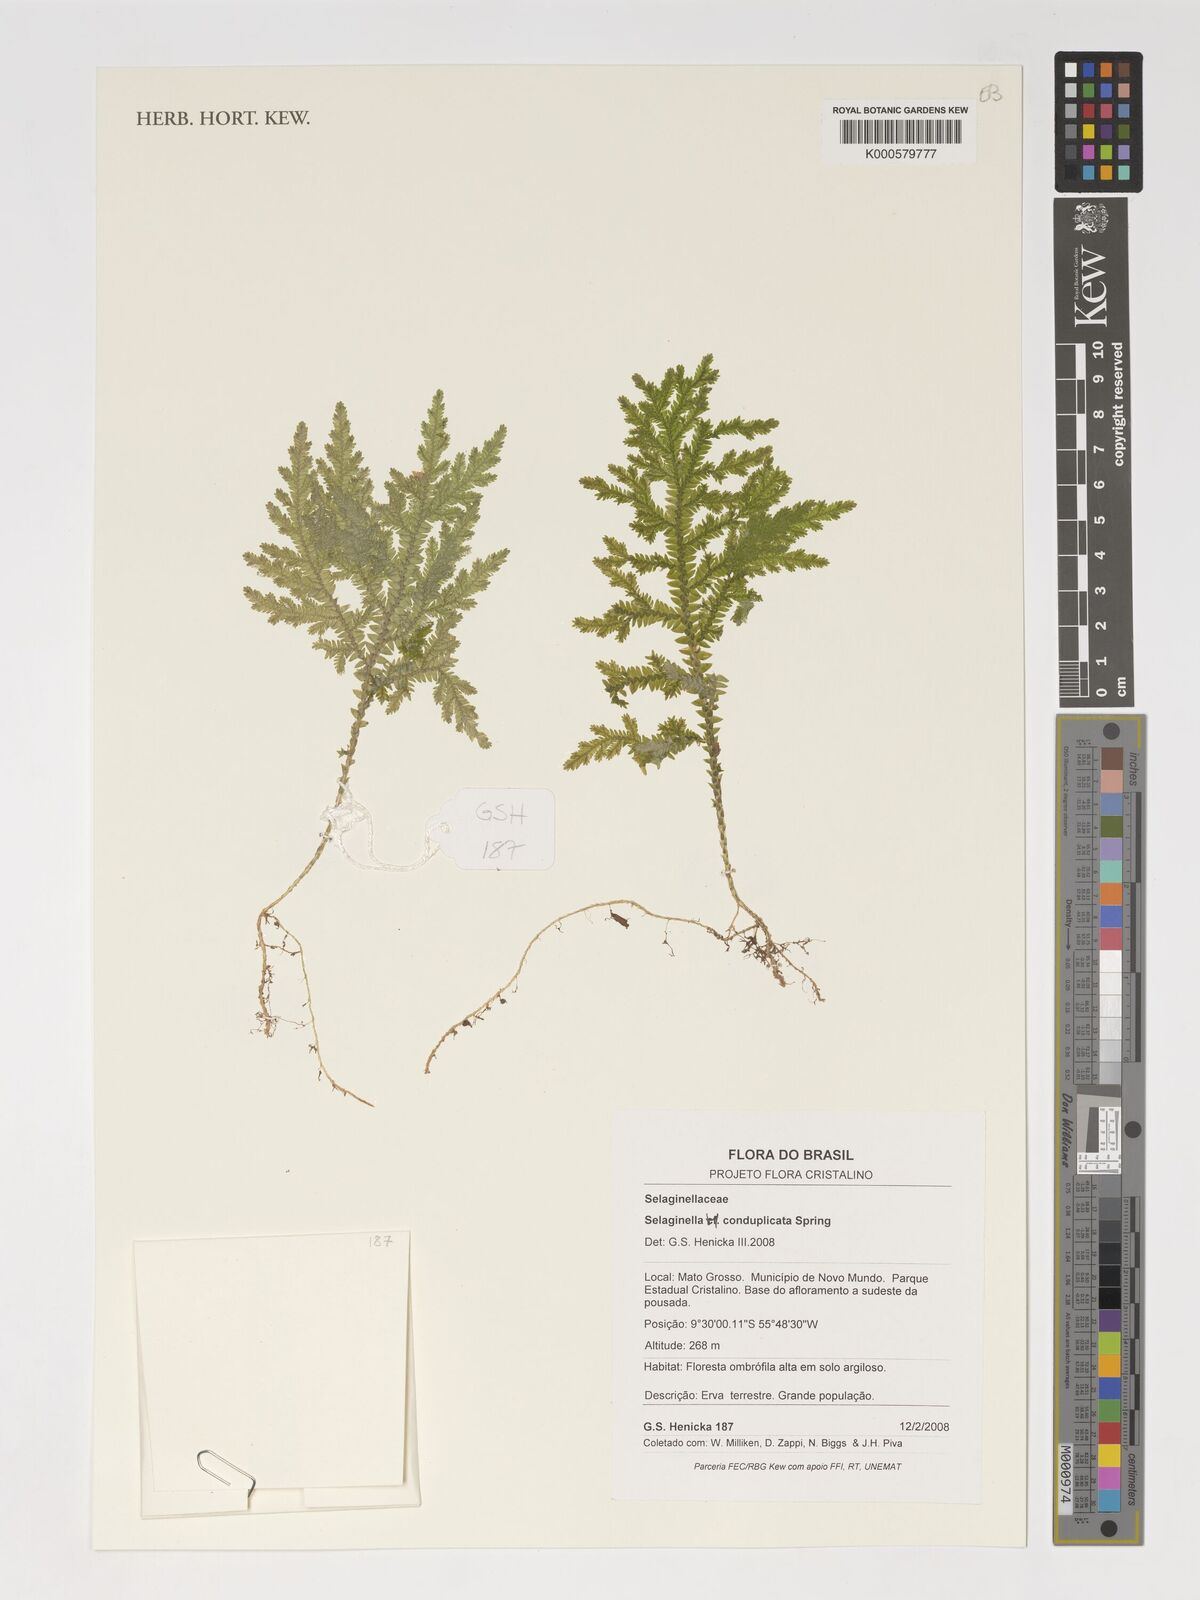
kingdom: Plantae
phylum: Tracheophyta
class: Lycopodiopsida
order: Selaginellales
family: Selaginellaceae
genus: Selaginella
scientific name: Selaginella conduplicata
